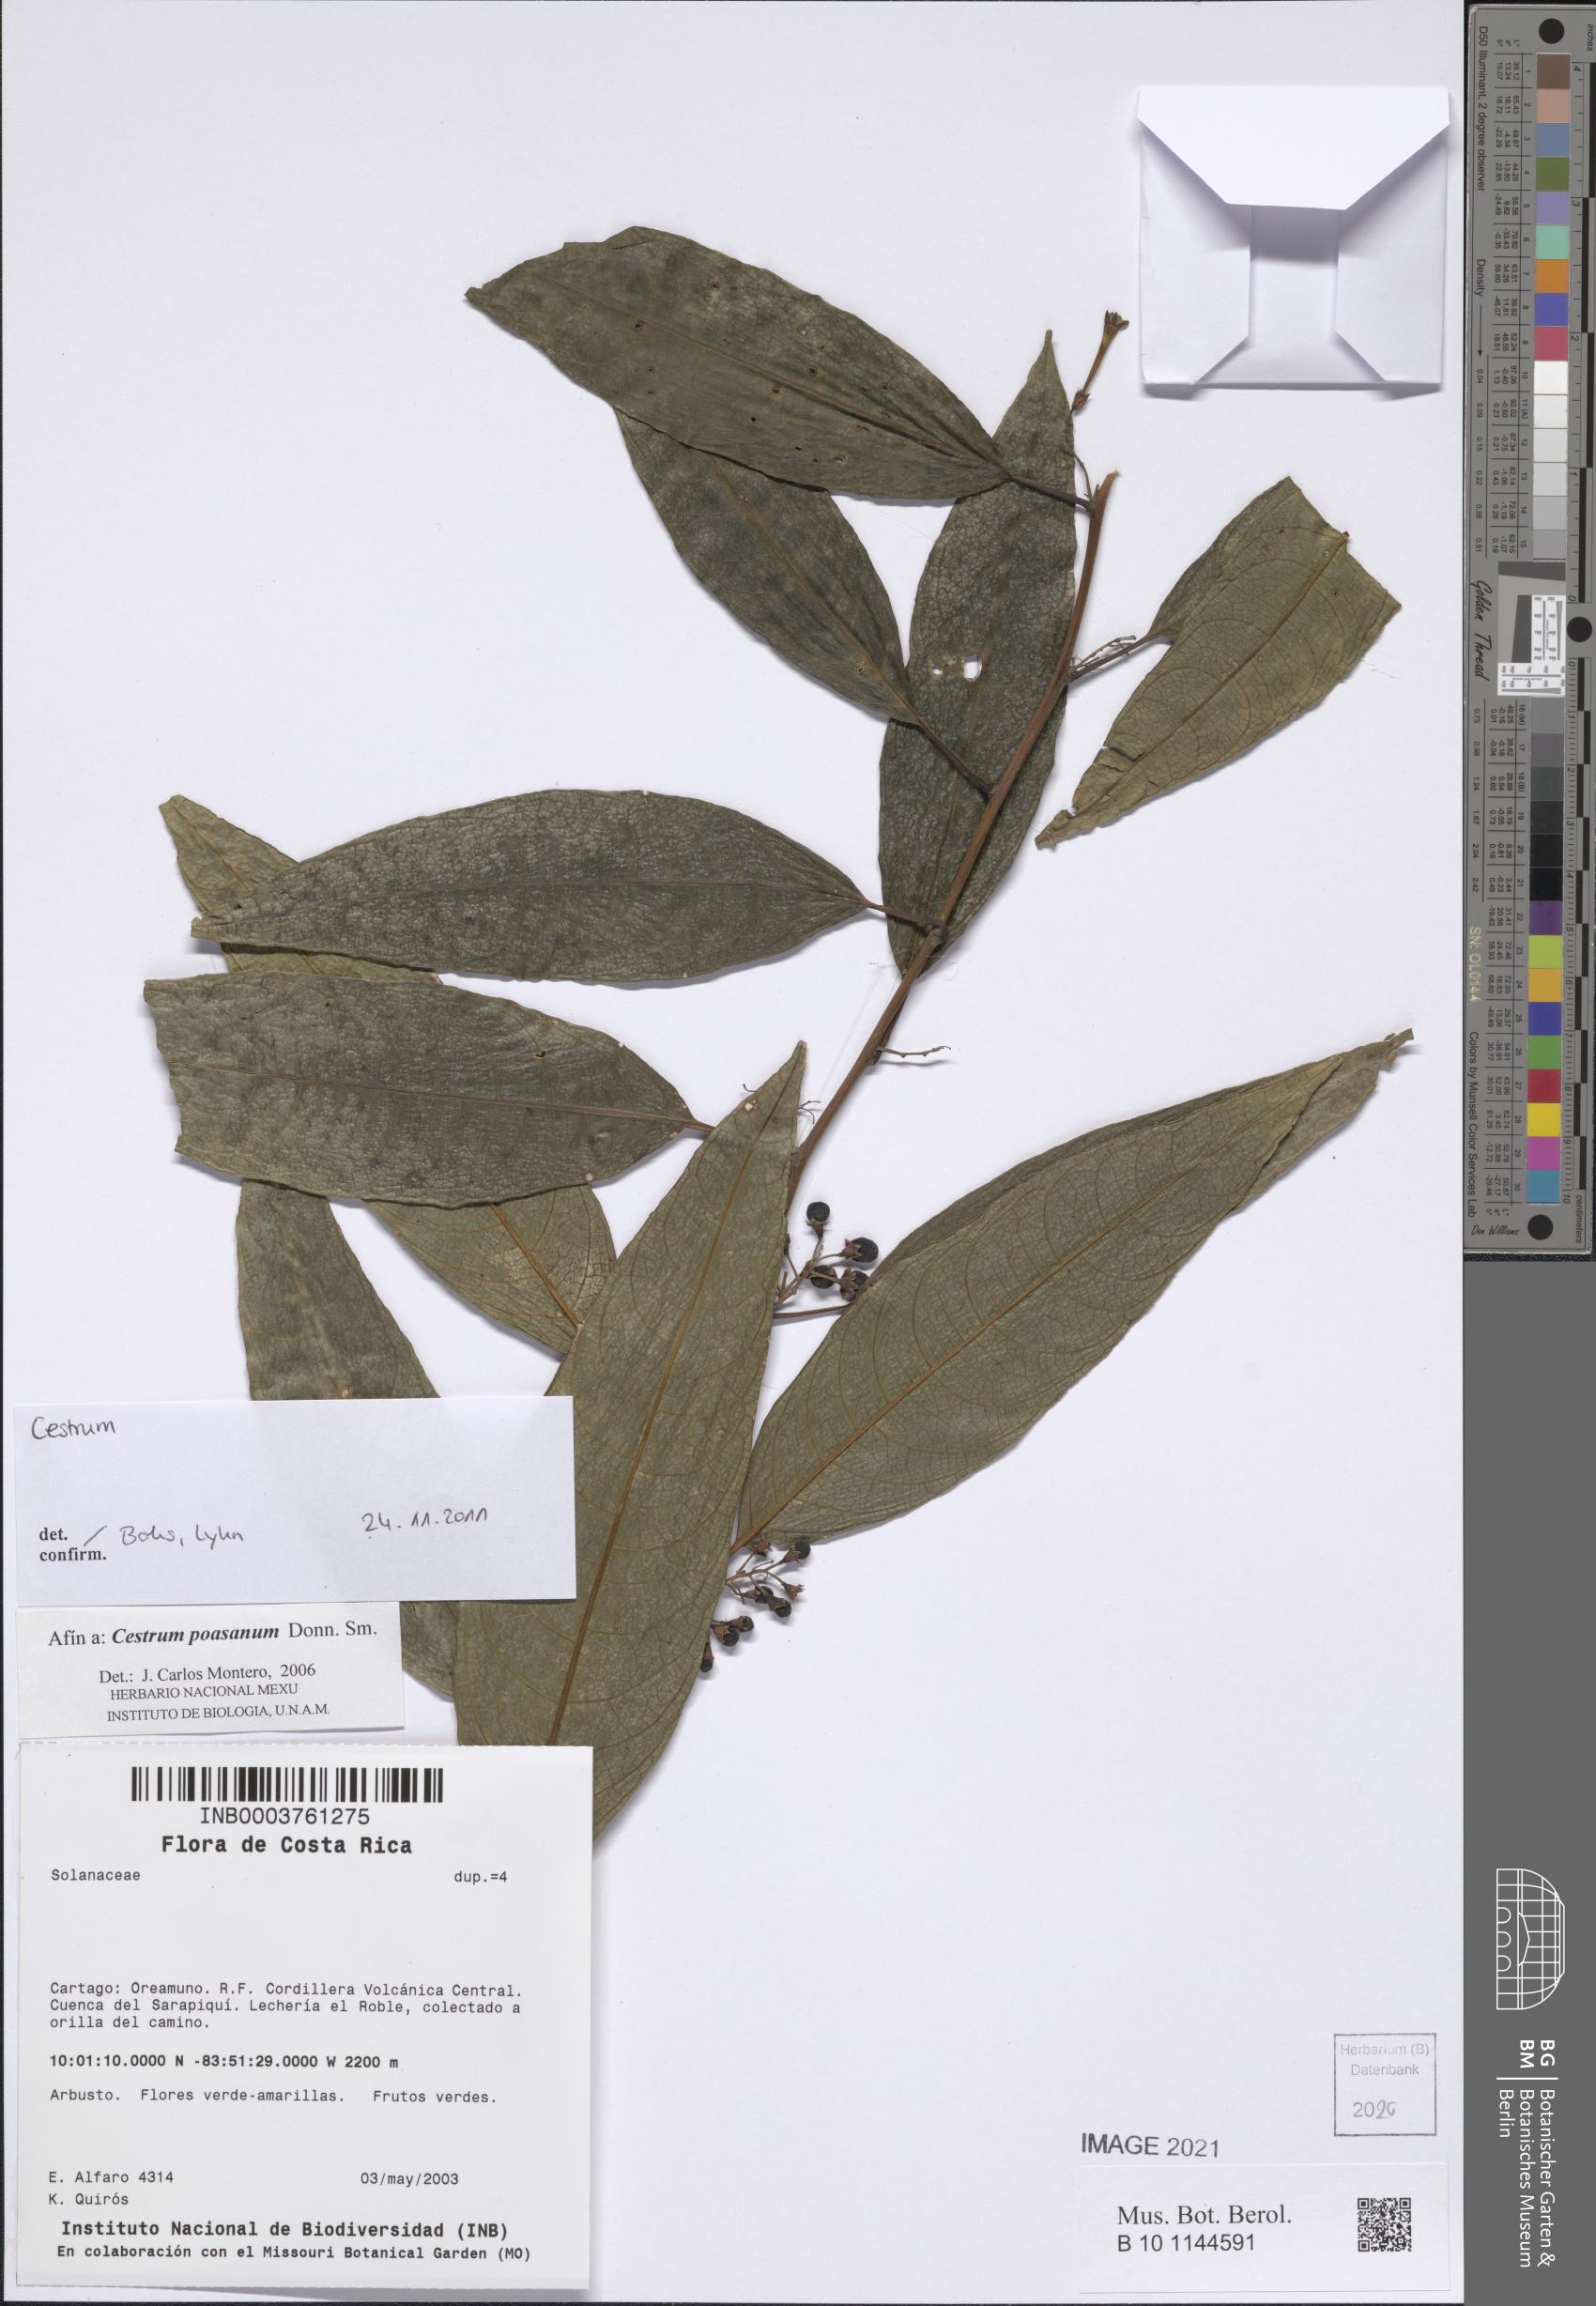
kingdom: Plantae
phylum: Tracheophyta
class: Magnoliopsida
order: Solanales
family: Solanaceae
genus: Cestrum
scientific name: Cestrum
